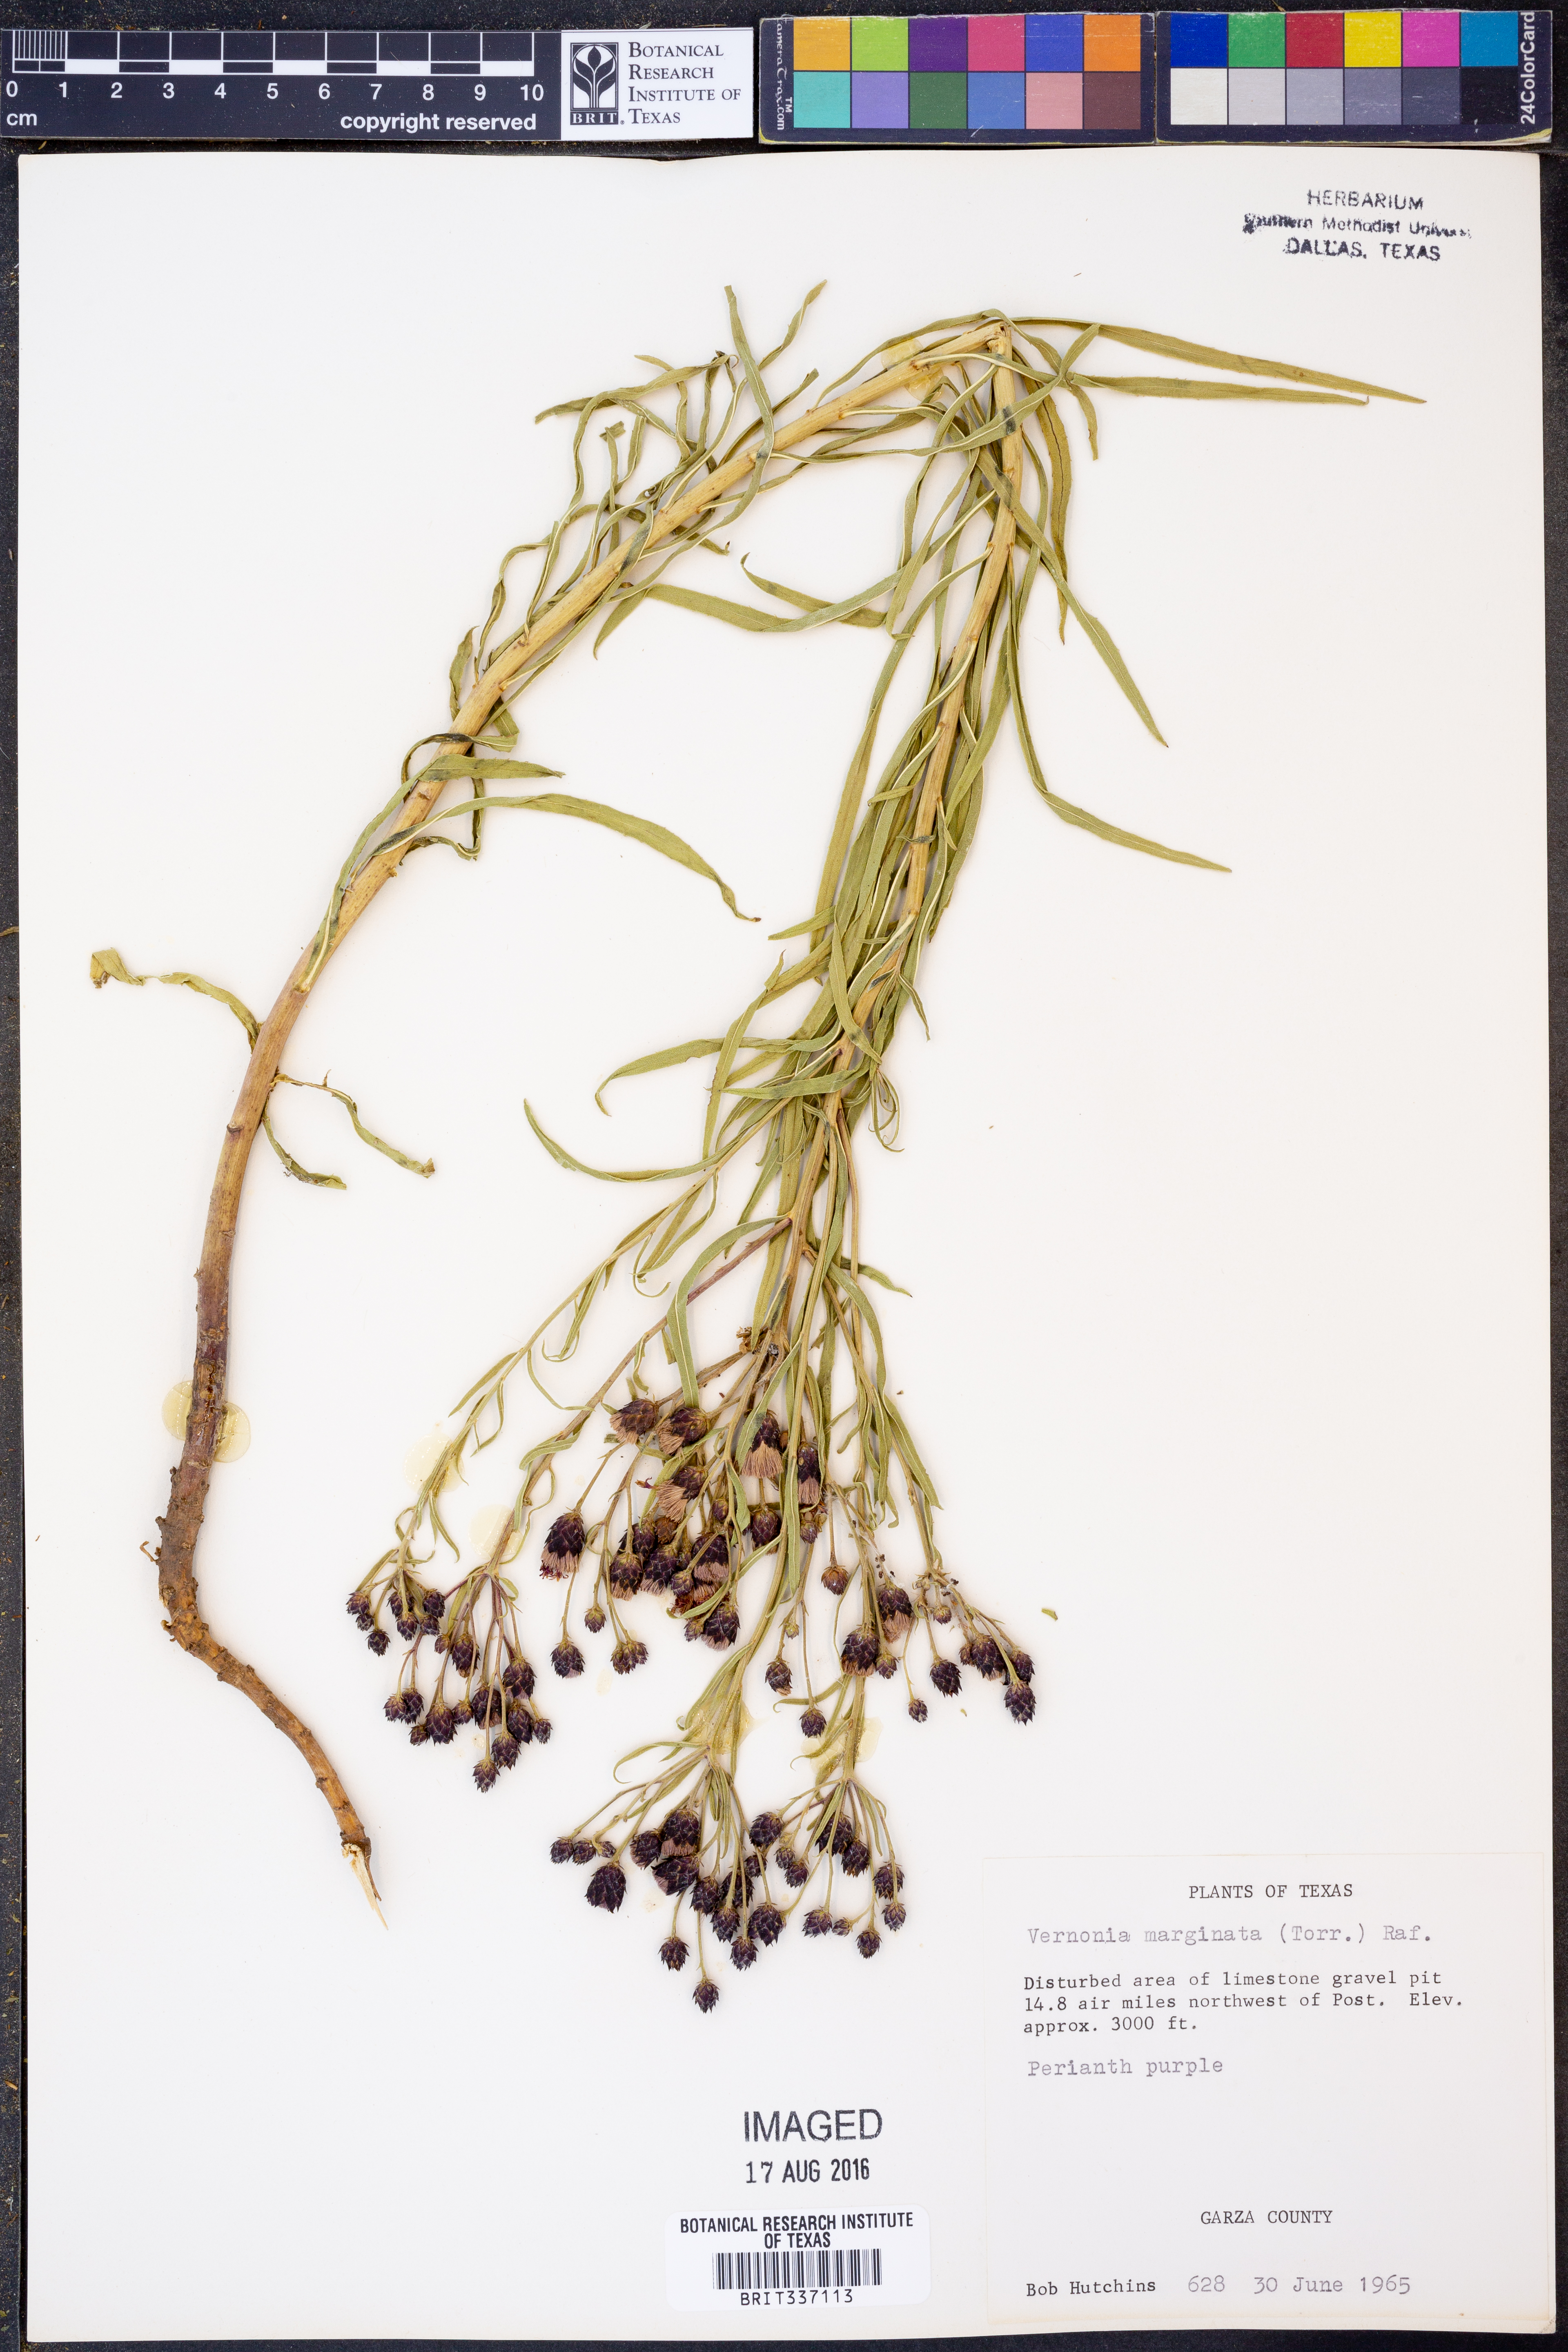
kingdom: Plantae
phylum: Tracheophyta
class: Magnoliopsida
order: Asterales
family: Asteraceae
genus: Vernonia
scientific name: Vernonia marginata
